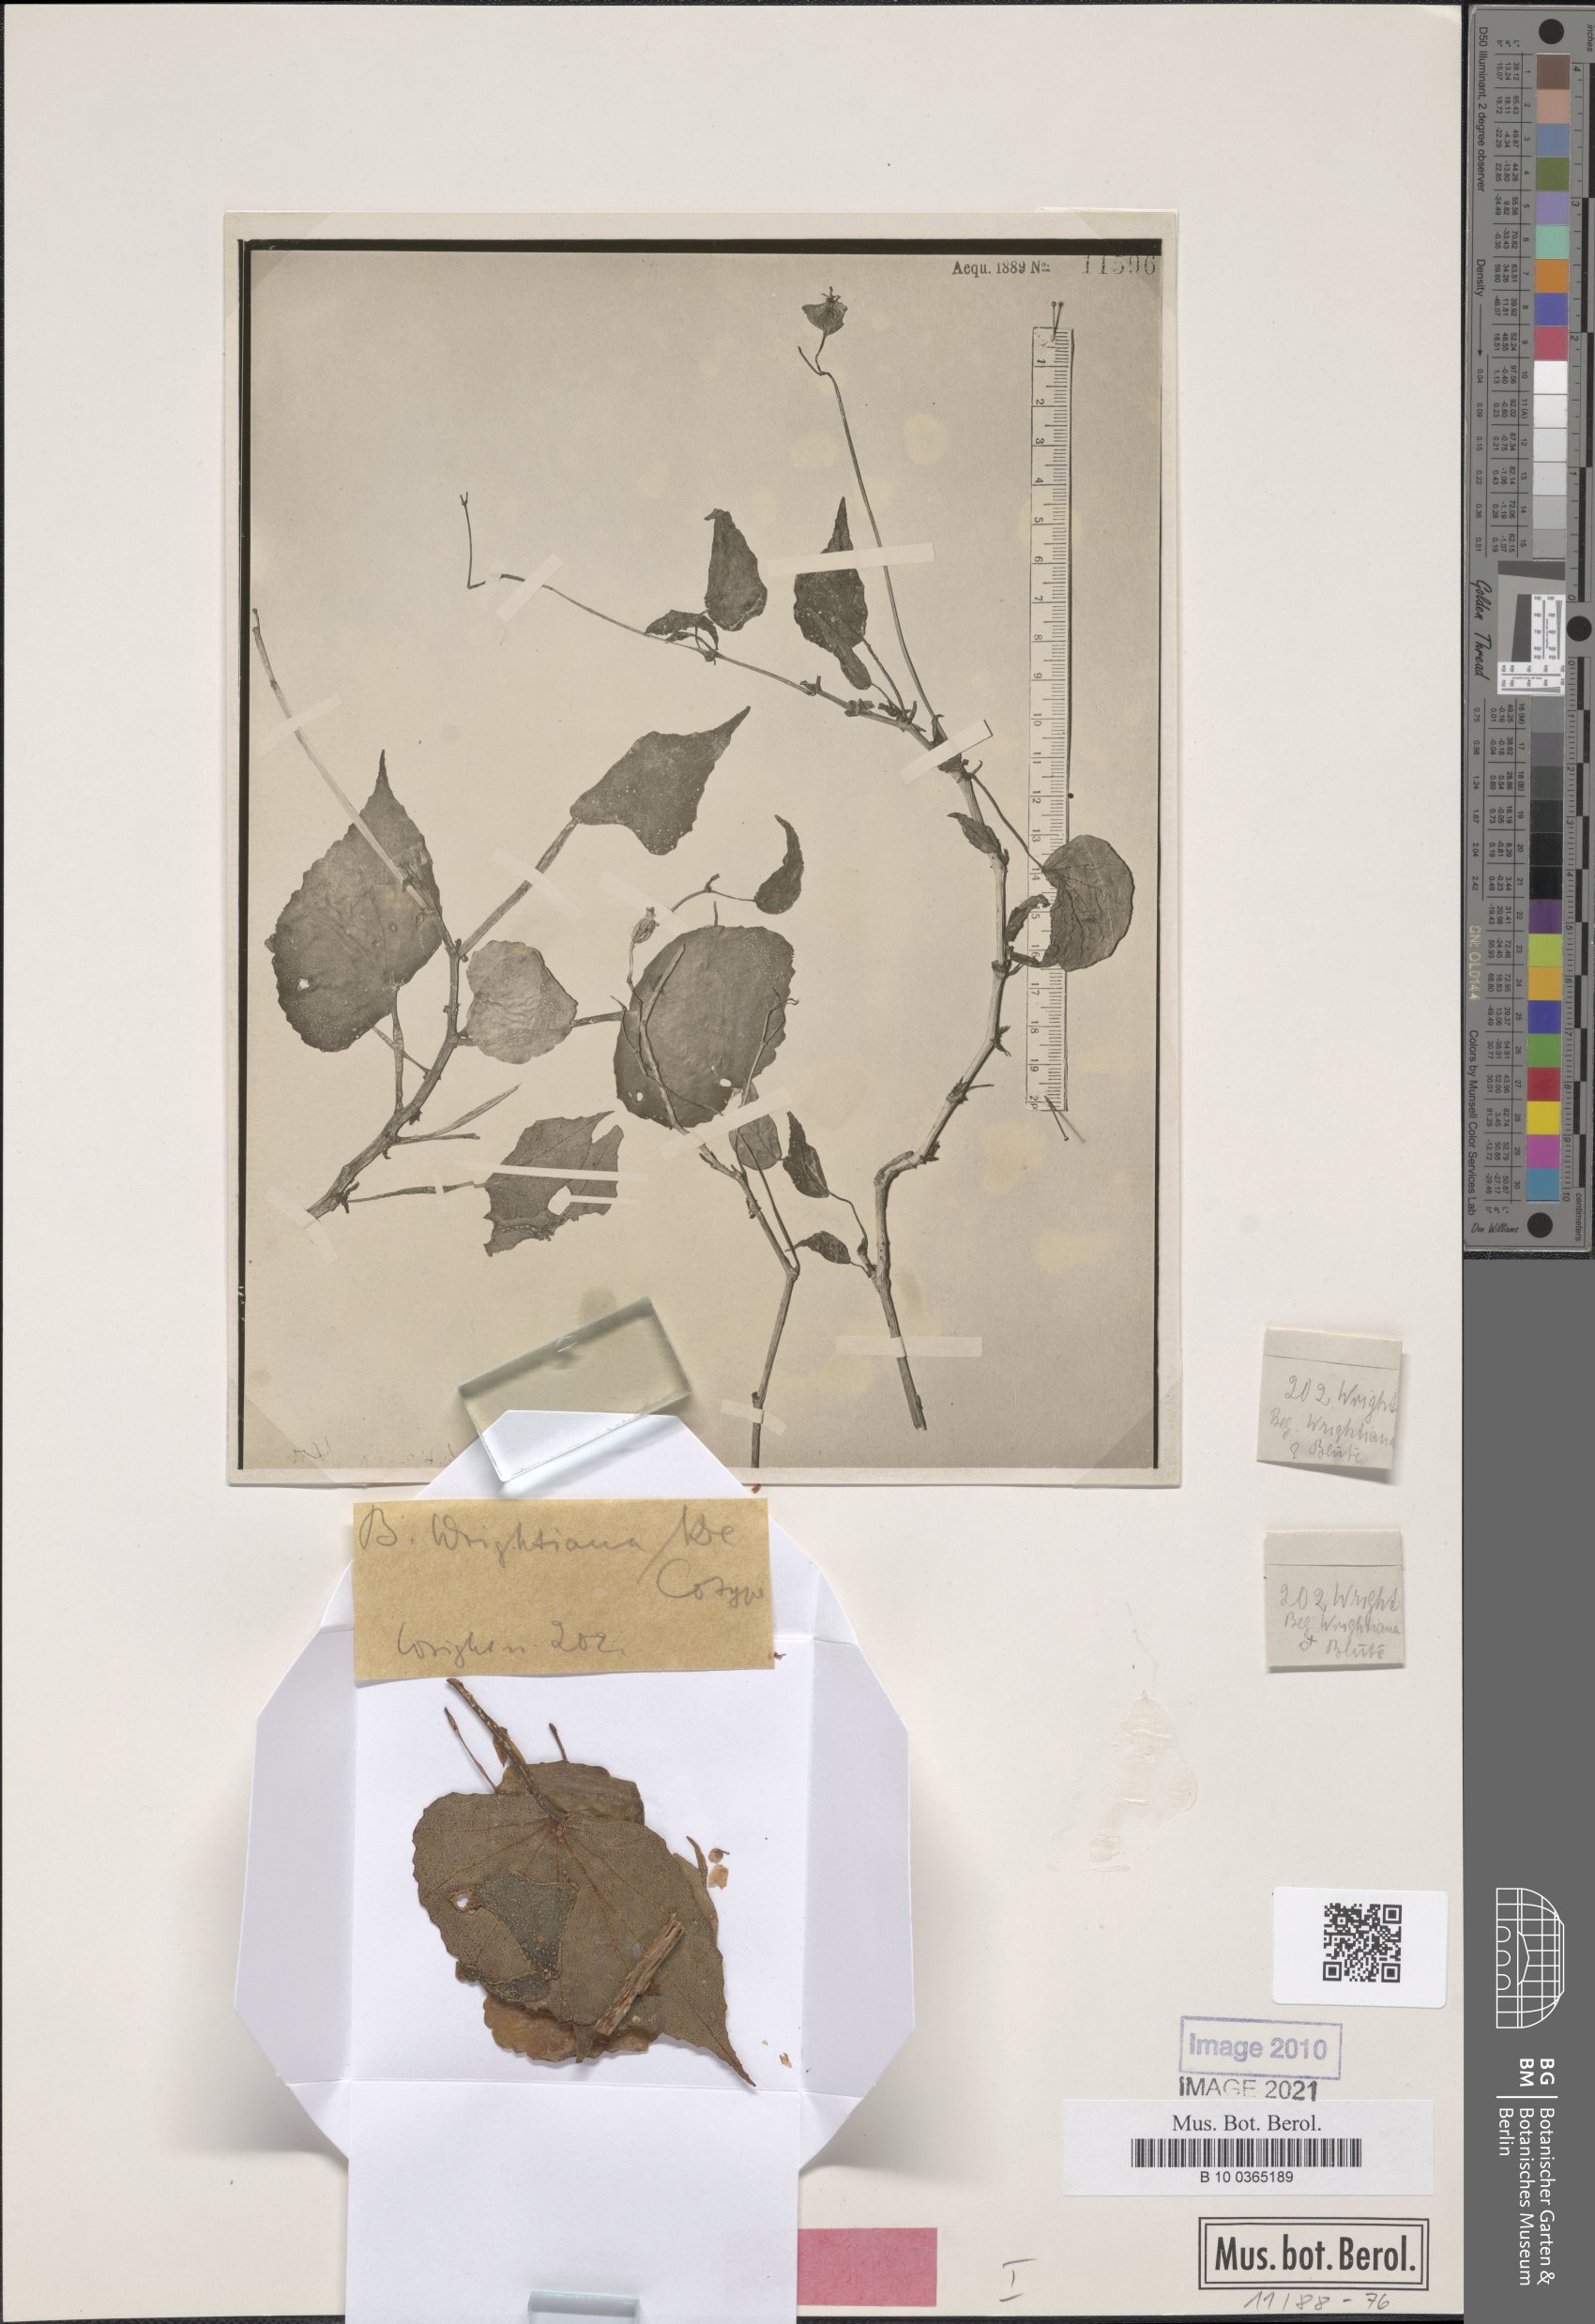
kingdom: Plantae
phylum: Tracheophyta
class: Magnoliopsida
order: Cucurbitales
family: Begoniaceae
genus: Begonia
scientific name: Begonia wrightiana
